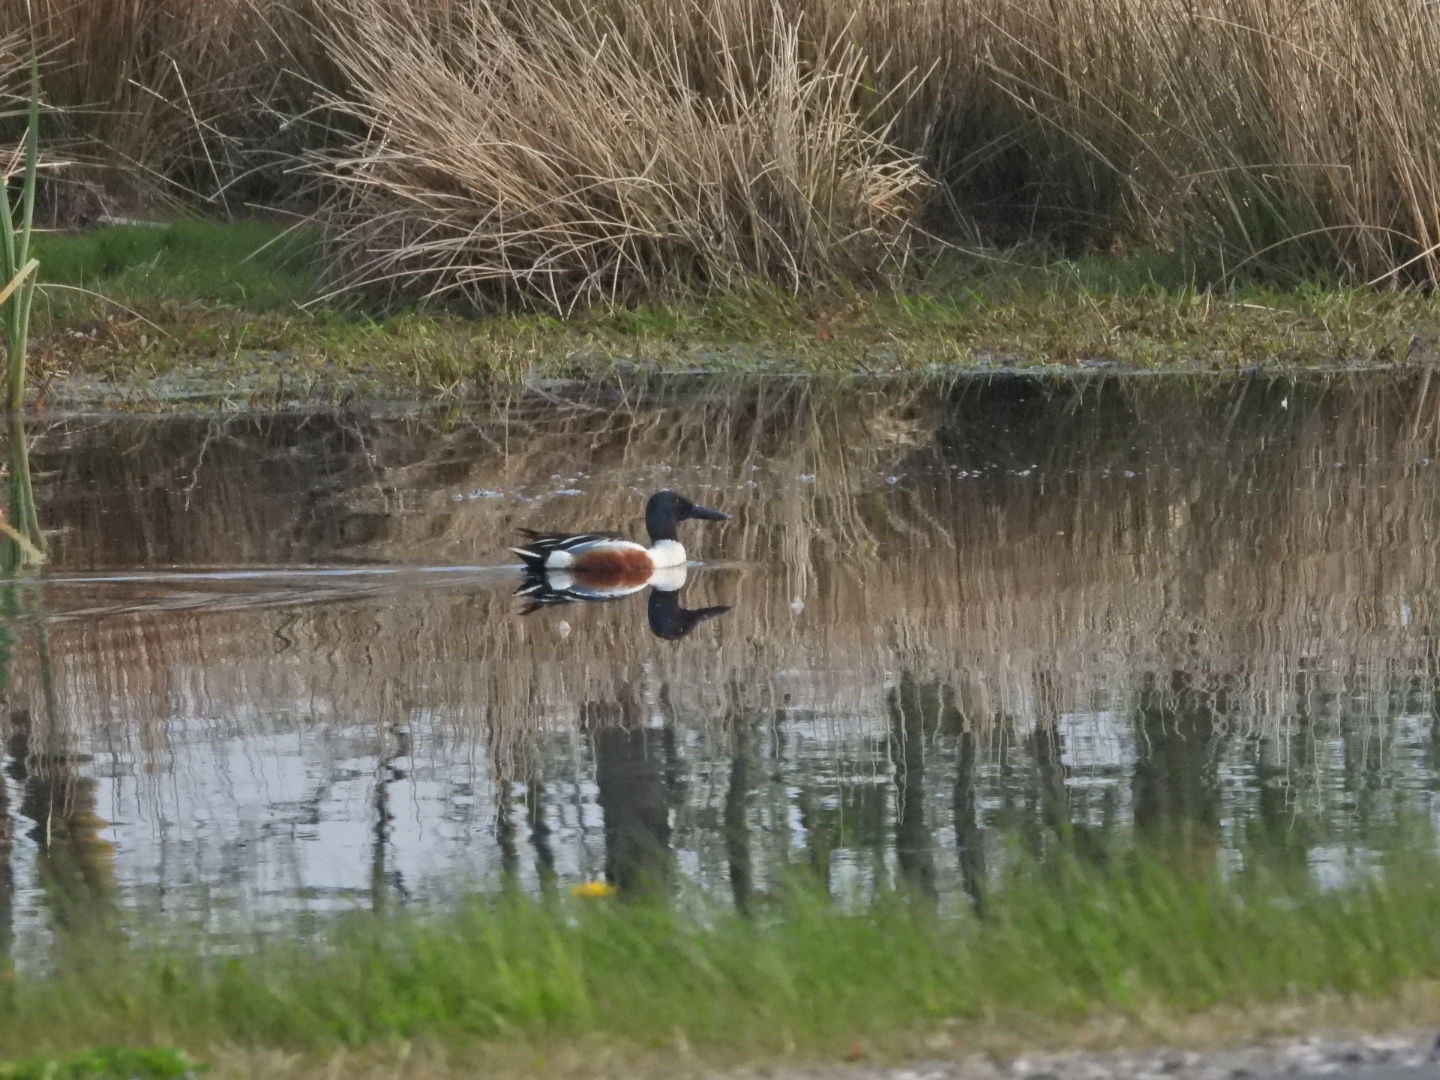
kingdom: Animalia
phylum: Chordata
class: Aves
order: Anseriformes
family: Anatidae
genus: Spatula
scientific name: Spatula clypeata
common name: Skeand
